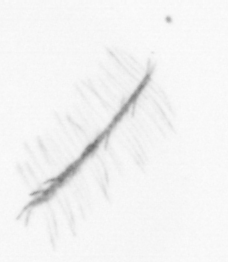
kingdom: Chromista
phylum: Ochrophyta
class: Bacillariophyceae
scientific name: Bacillariophyceae
